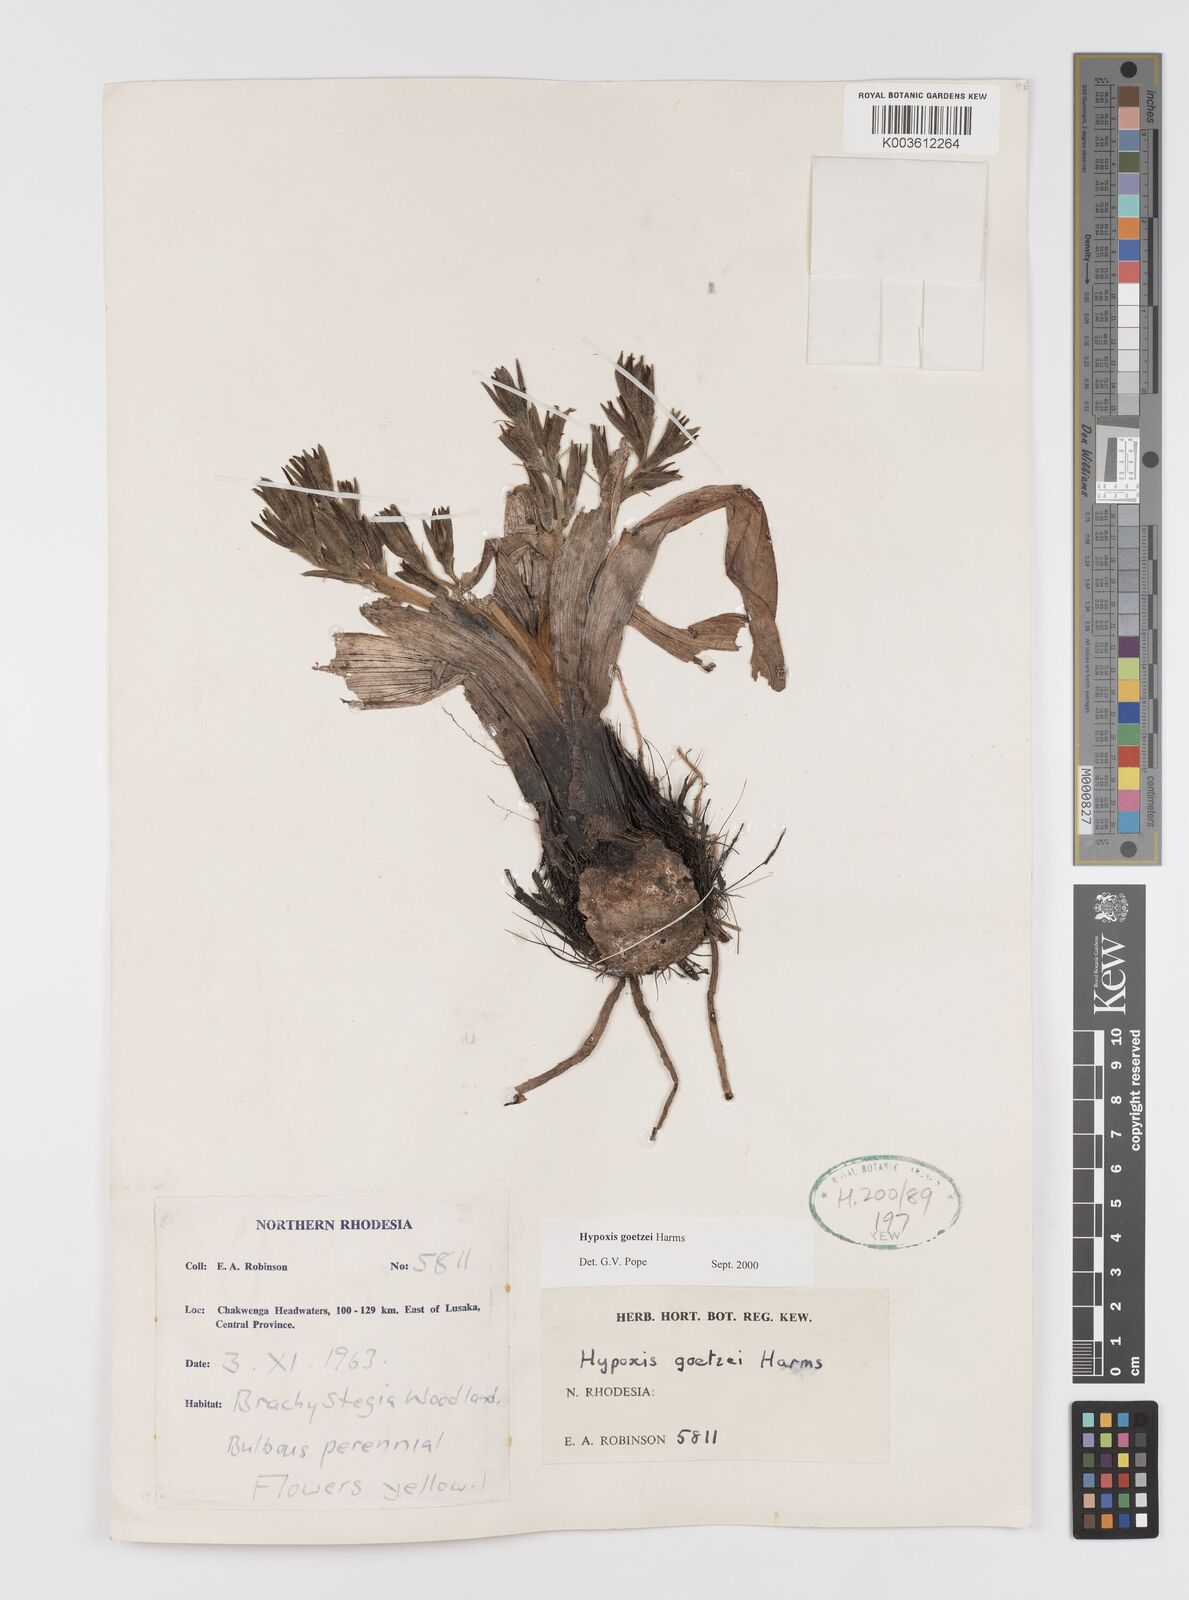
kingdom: Plantae
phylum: Tracheophyta
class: Liliopsida
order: Asparagales
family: Hypoxidaceae
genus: Hypoxis
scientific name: Hypoxis goetzei
